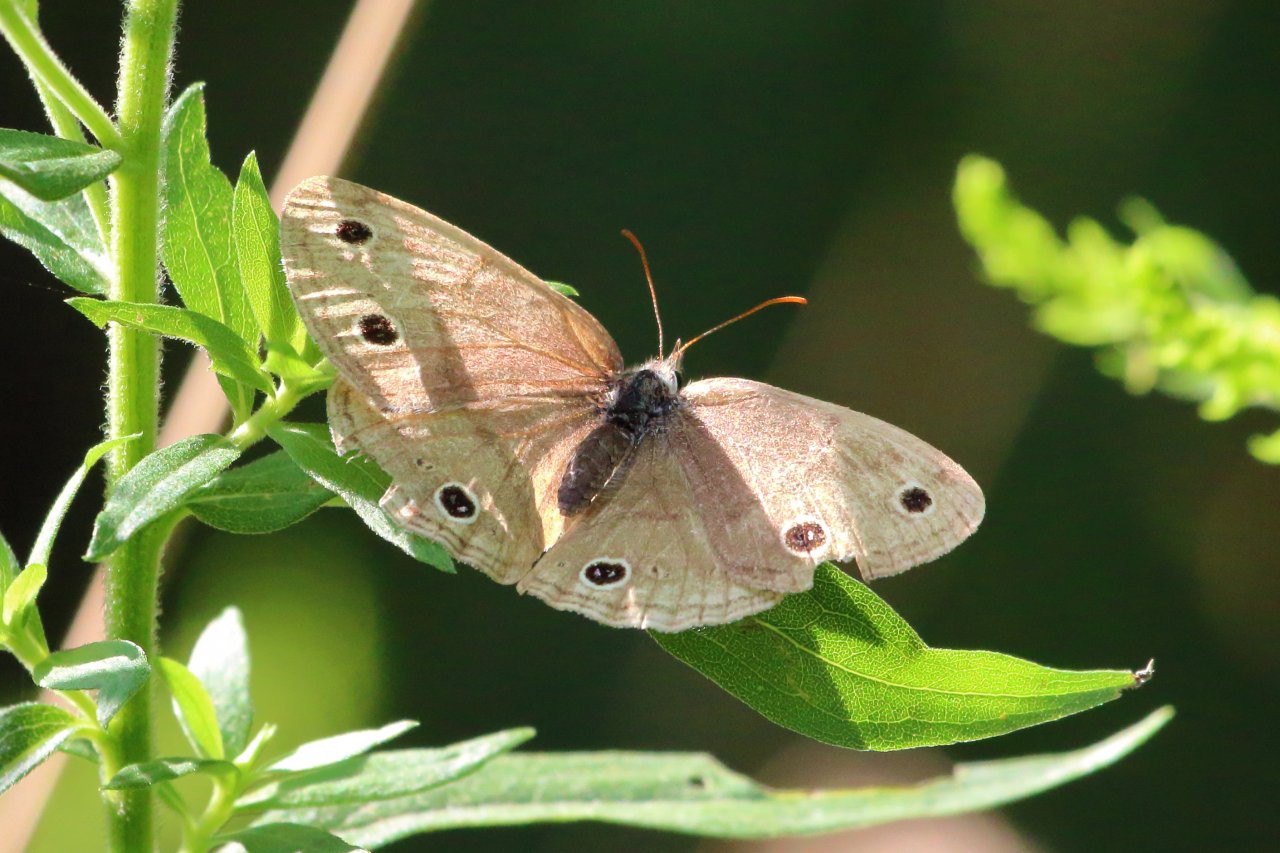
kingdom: Animalia
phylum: Arthropoda
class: Insecta
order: Lepidoptera
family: Nymphalidae
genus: Euptychia
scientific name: Euptychia cymela
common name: Little Wood Satyr
